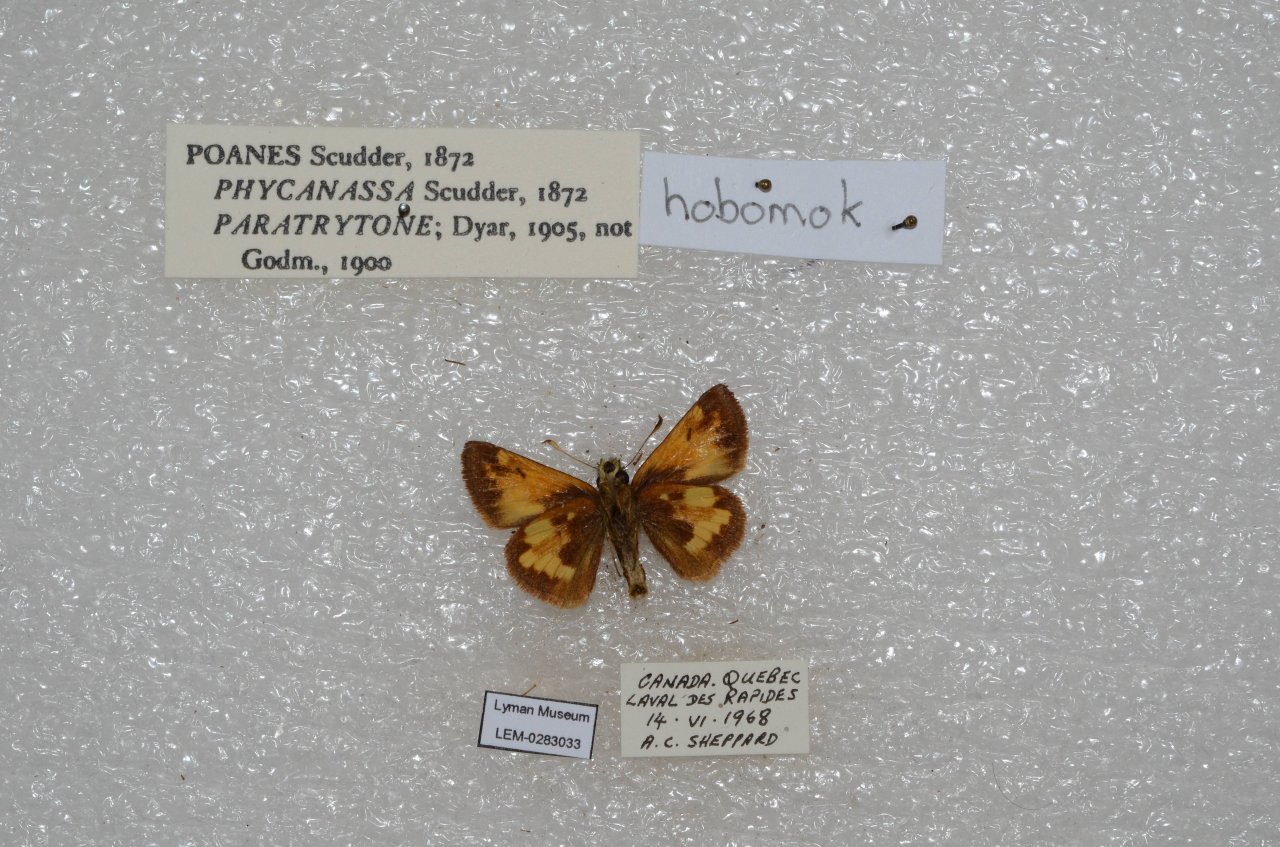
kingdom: Animalia
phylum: Arthropoda
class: Insecta
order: Lepidoptera
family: Hesperiidae
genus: Lon
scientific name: Lon hobomok
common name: Hobomok Skipper
